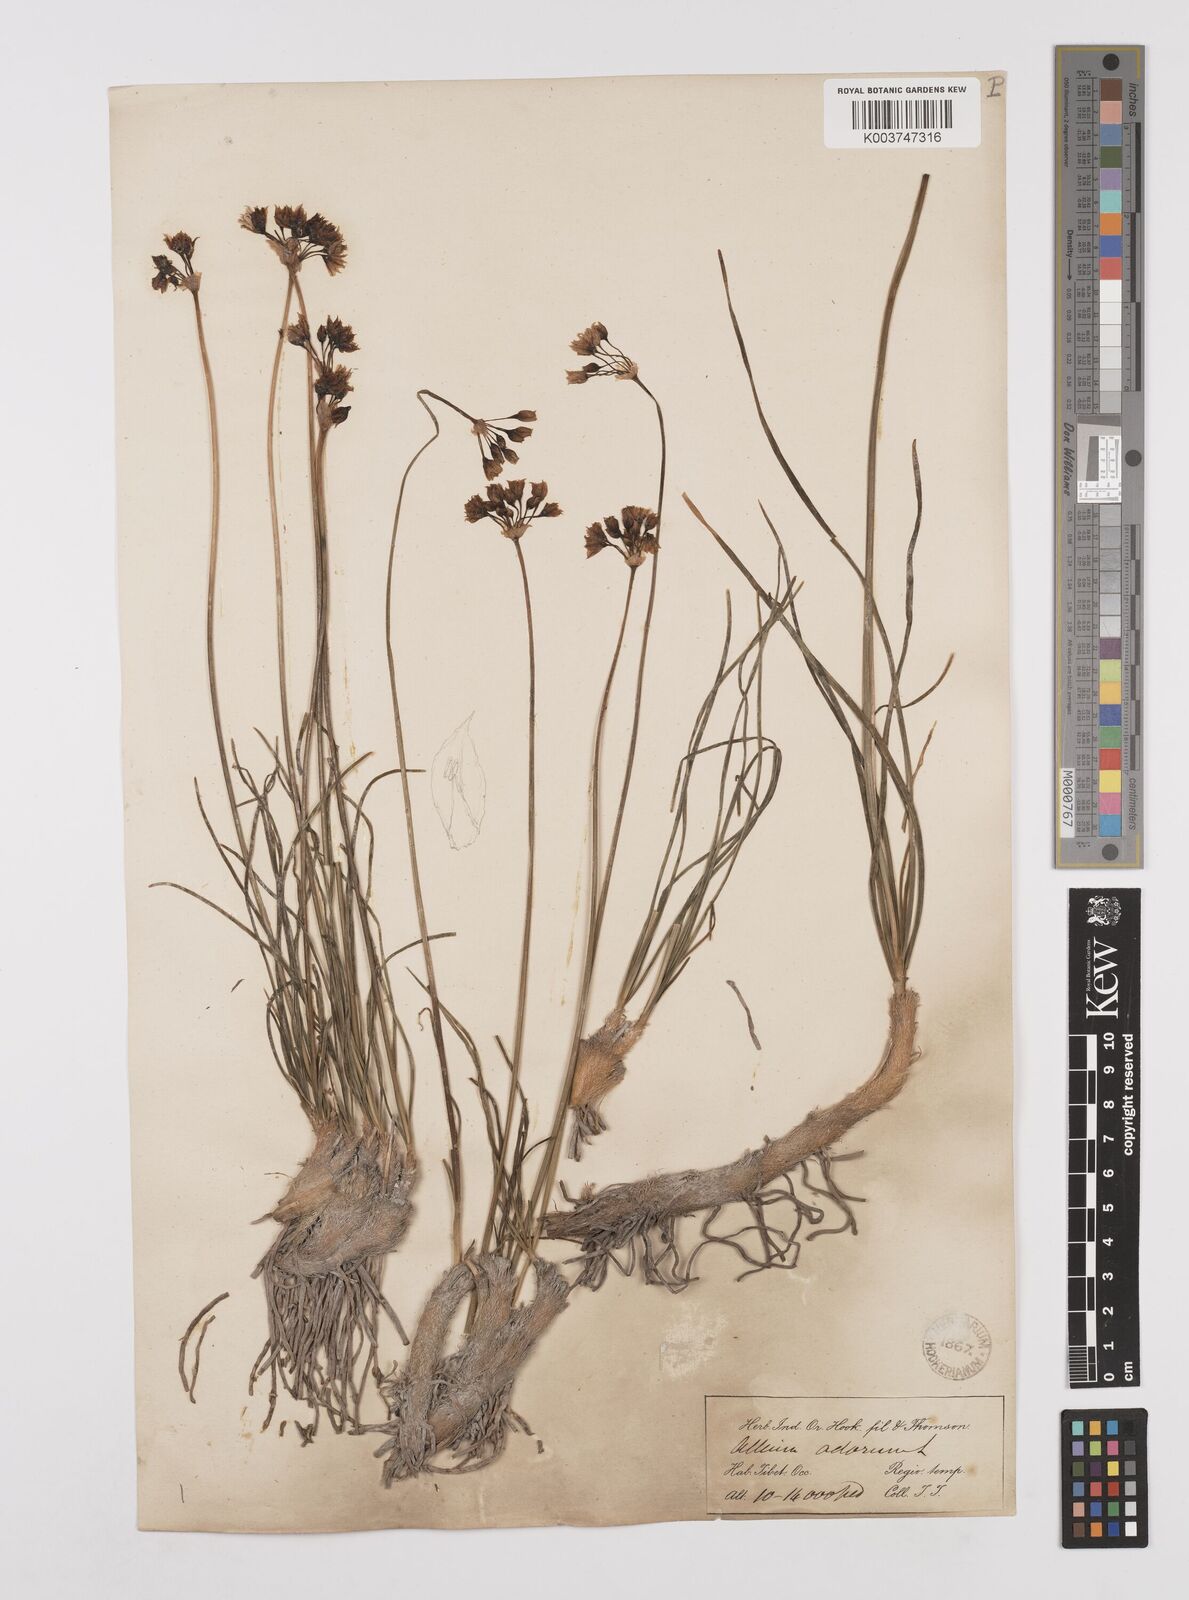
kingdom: Plantae
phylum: Tracheophyta
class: Liliopsida
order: Asparagales
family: Amaryllidaceae
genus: Allium
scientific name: Allium oreoprasum
